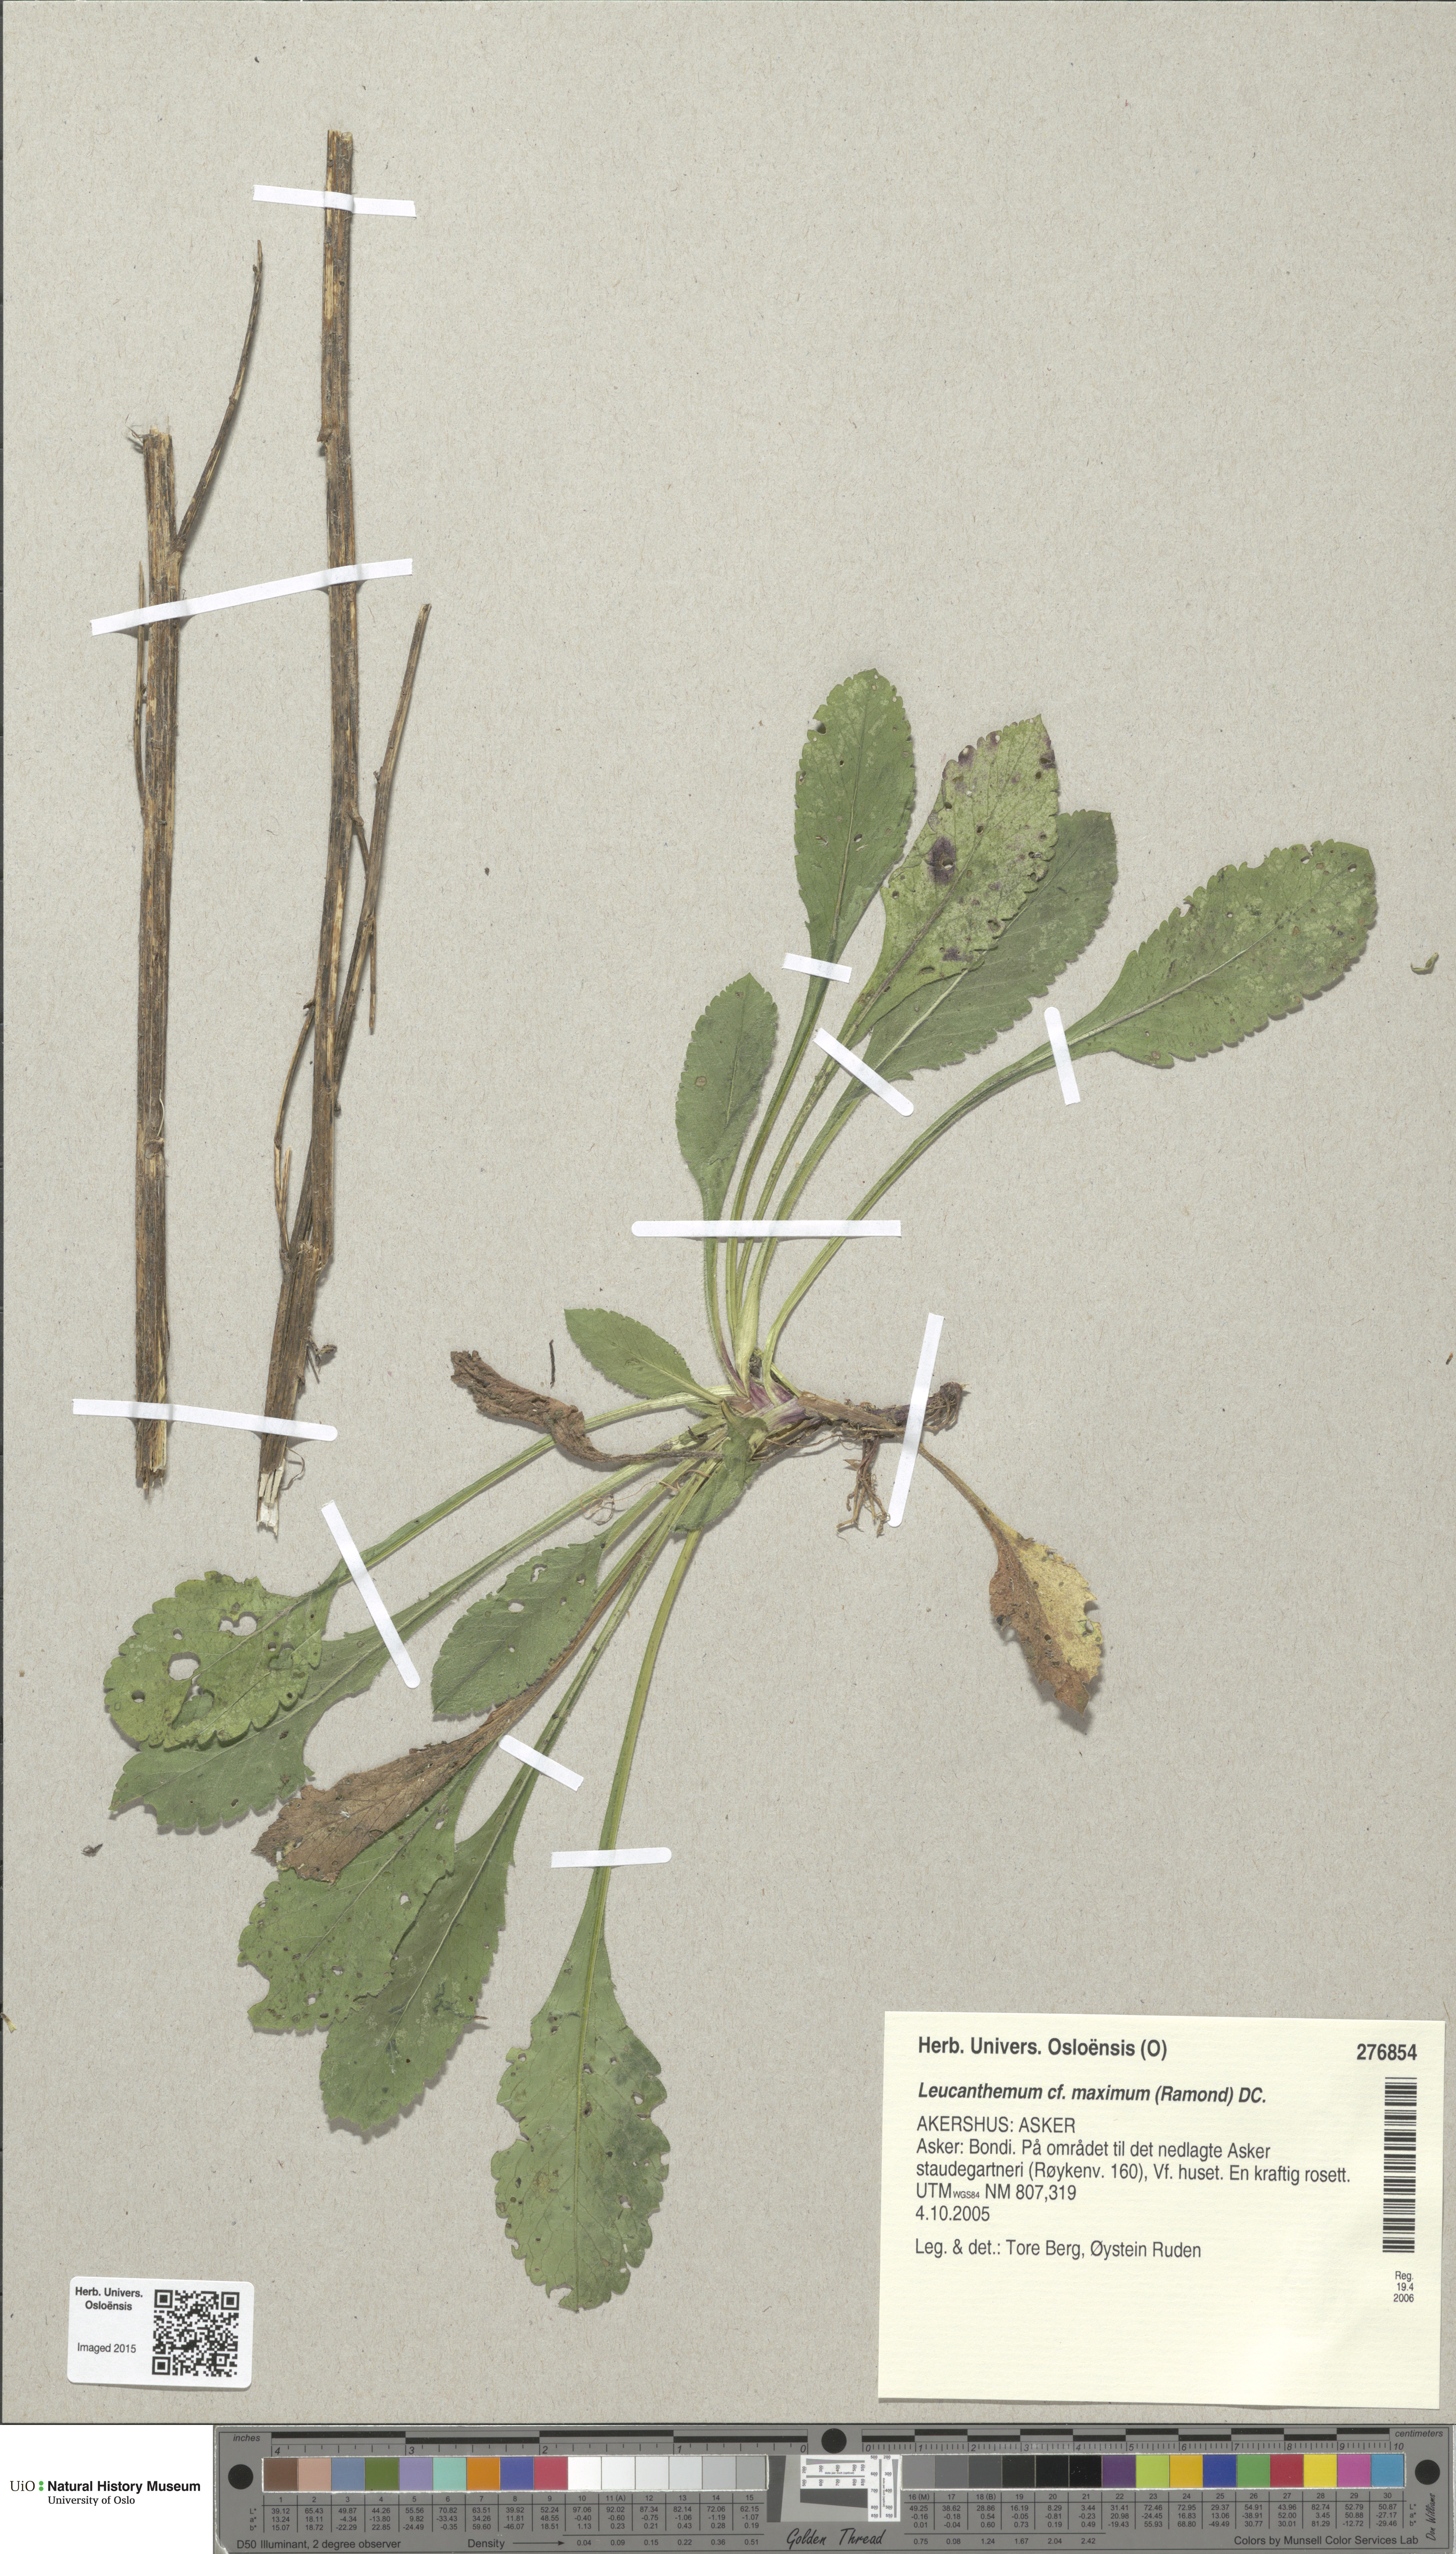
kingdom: Plantae
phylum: Tracheophyta
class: Magnoliopsida
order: Asterales
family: Asteraceae
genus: Leucanthemum
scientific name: Leucanthemum maximum
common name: Max chrysanthemum
